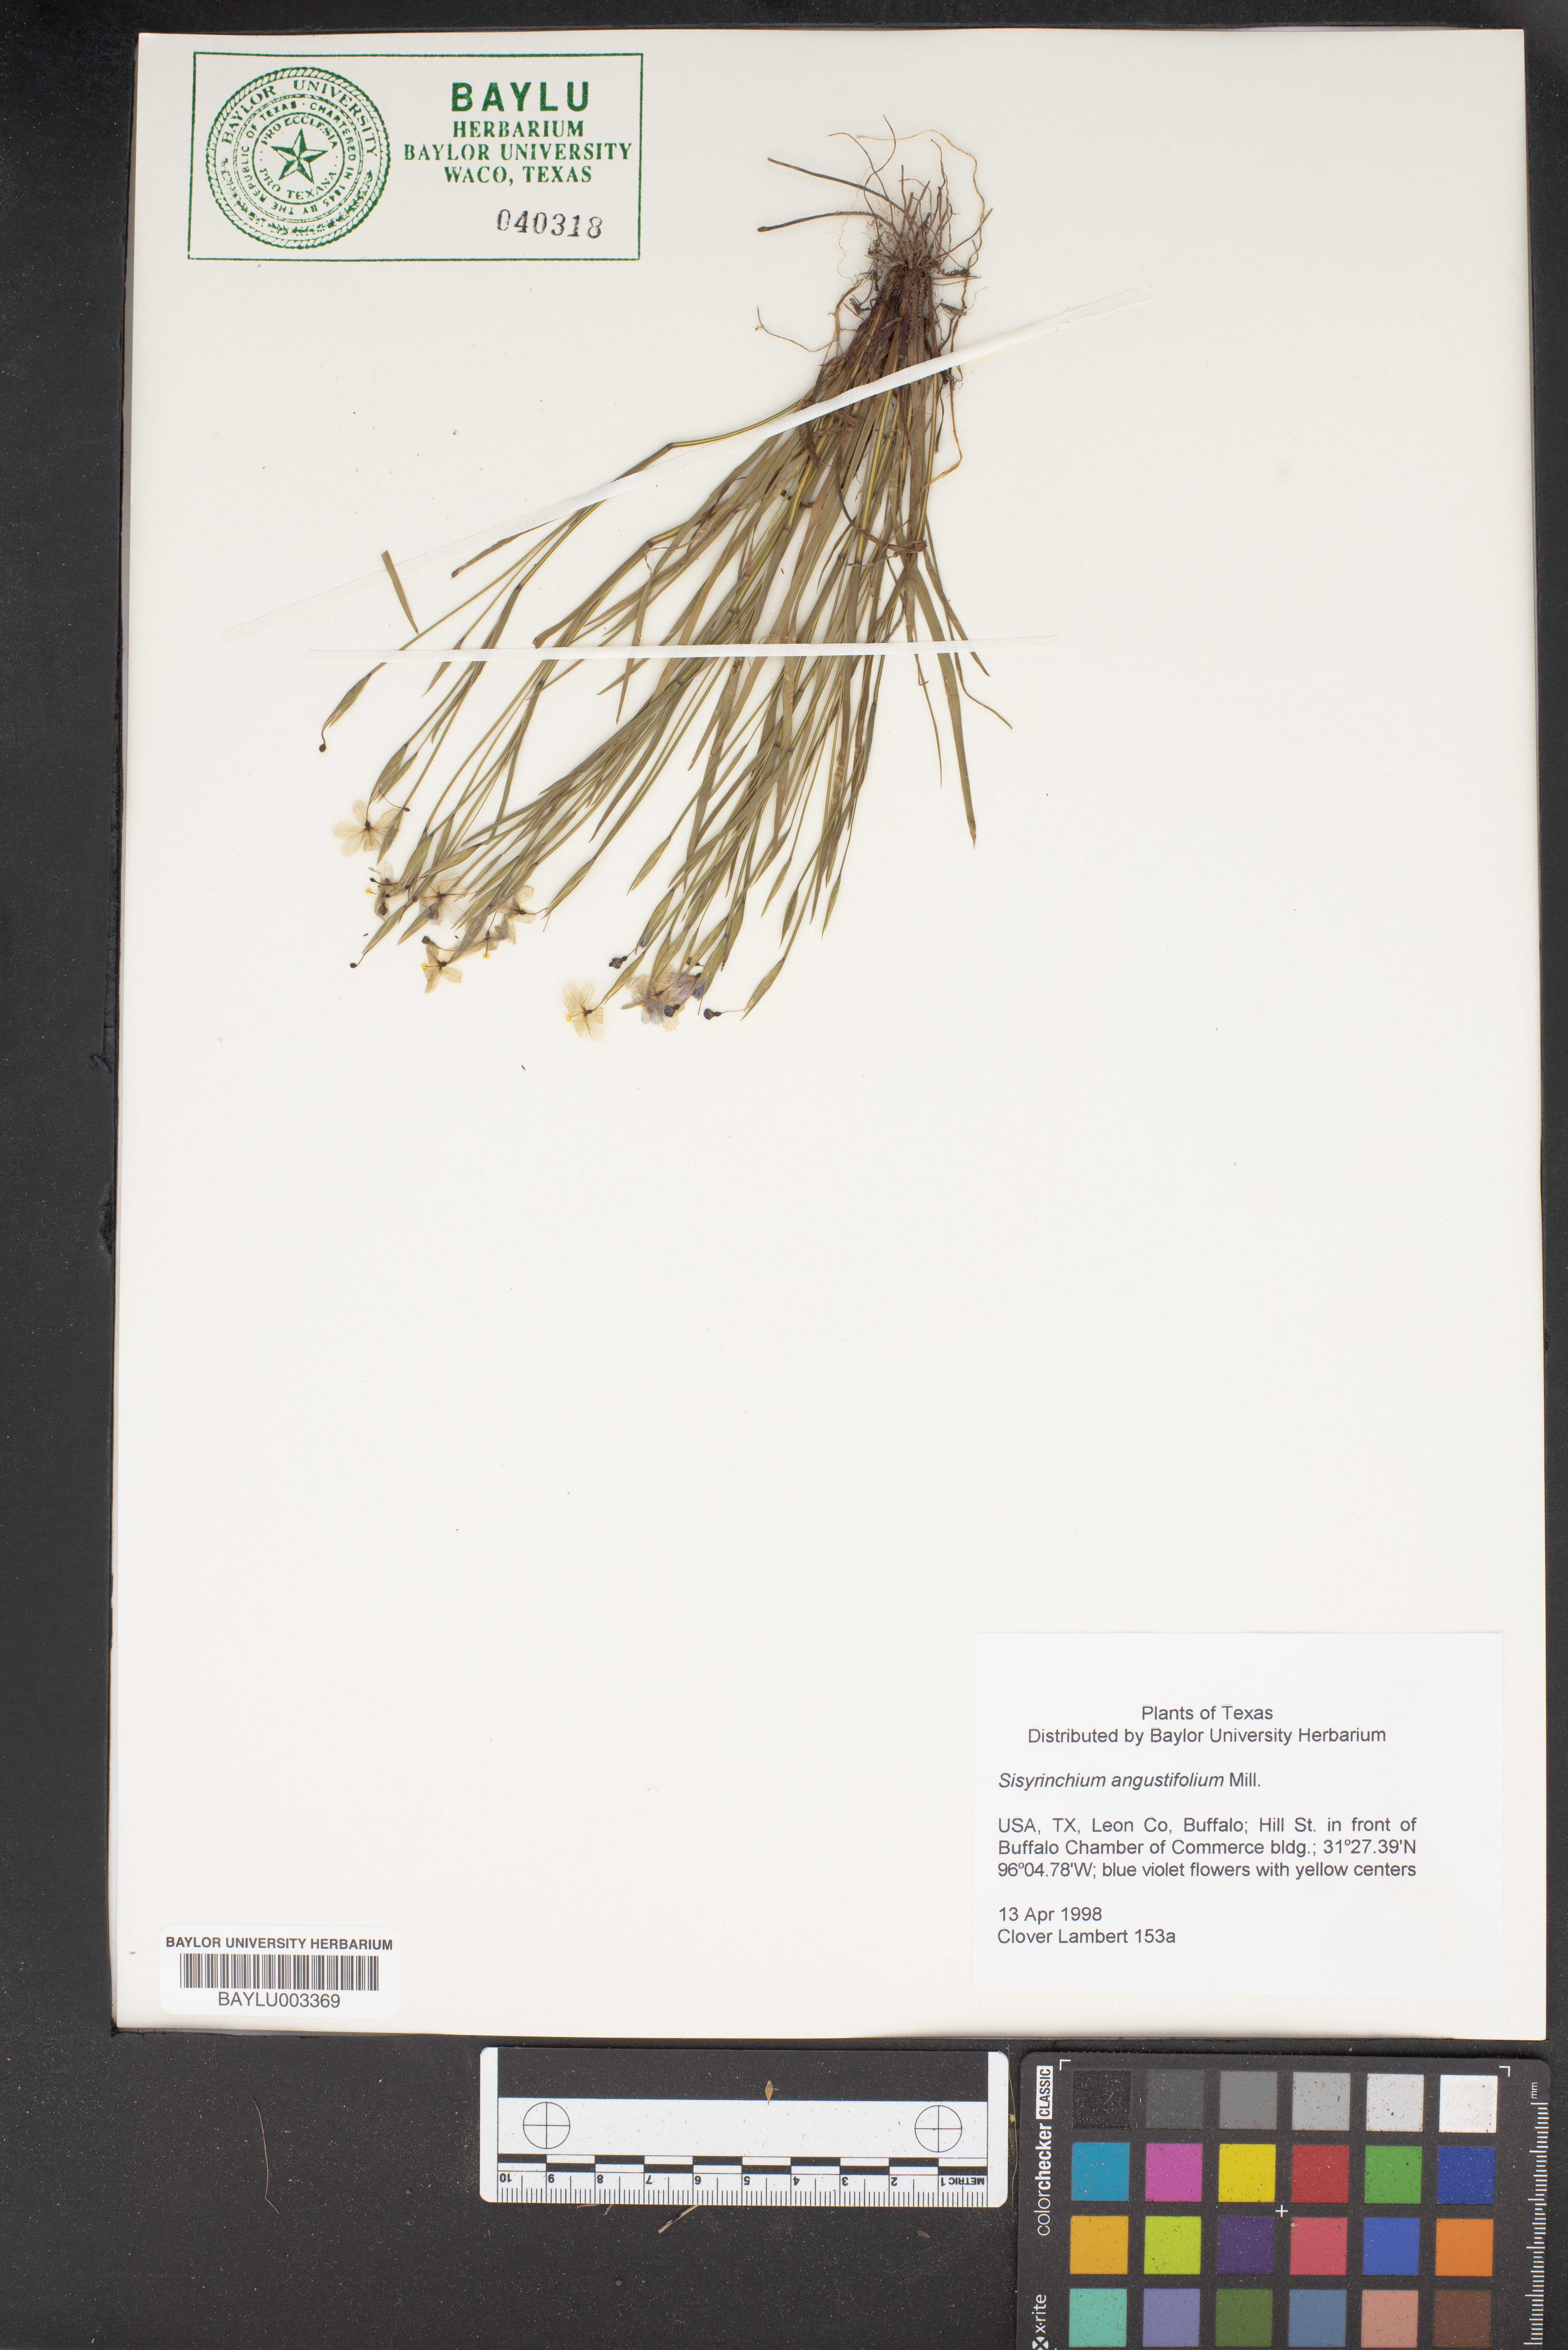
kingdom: Plantae
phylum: Tracheophyta
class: Liliopsida
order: Asparagales
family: Iridaceae
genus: Sisyrinchium
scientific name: Sisyrinchium angustifolium
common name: Narrow-leaf blue-eyed-grass
